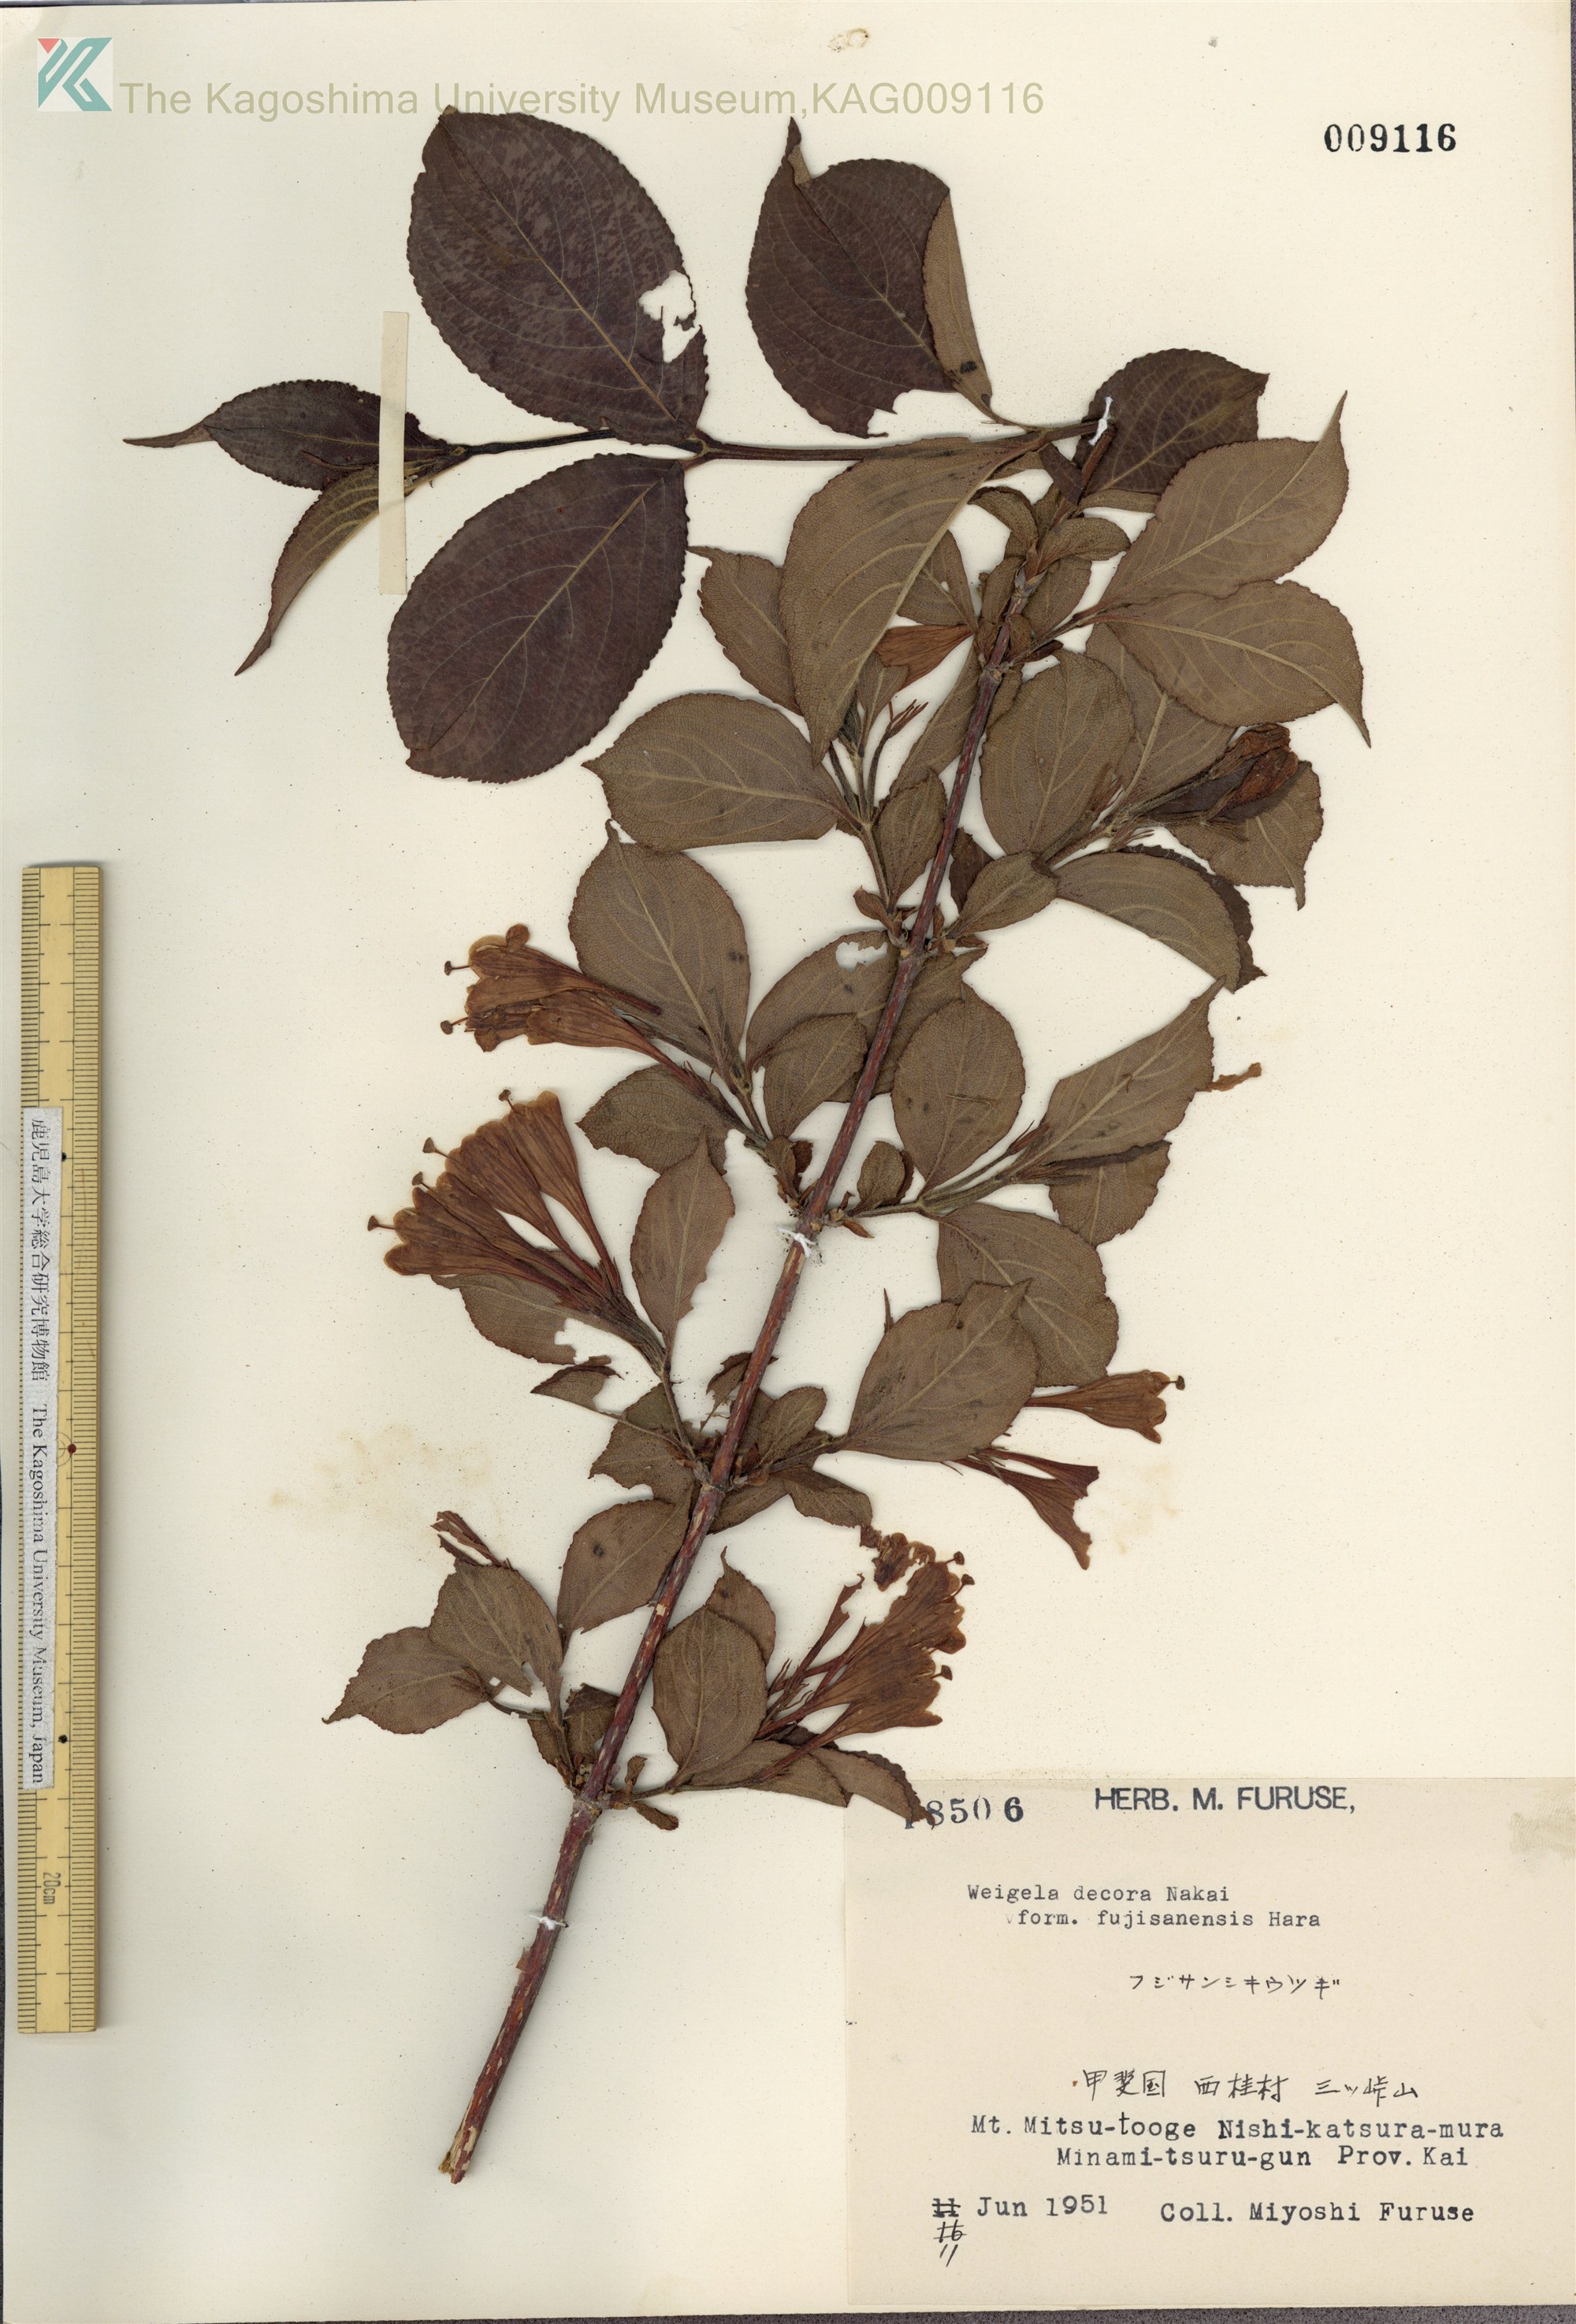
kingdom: Plantae
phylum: Tracheophyta
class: Magnoliopsida
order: Dipsacales
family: Caprifoliaceae
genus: Weigela
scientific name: Weigela decora
